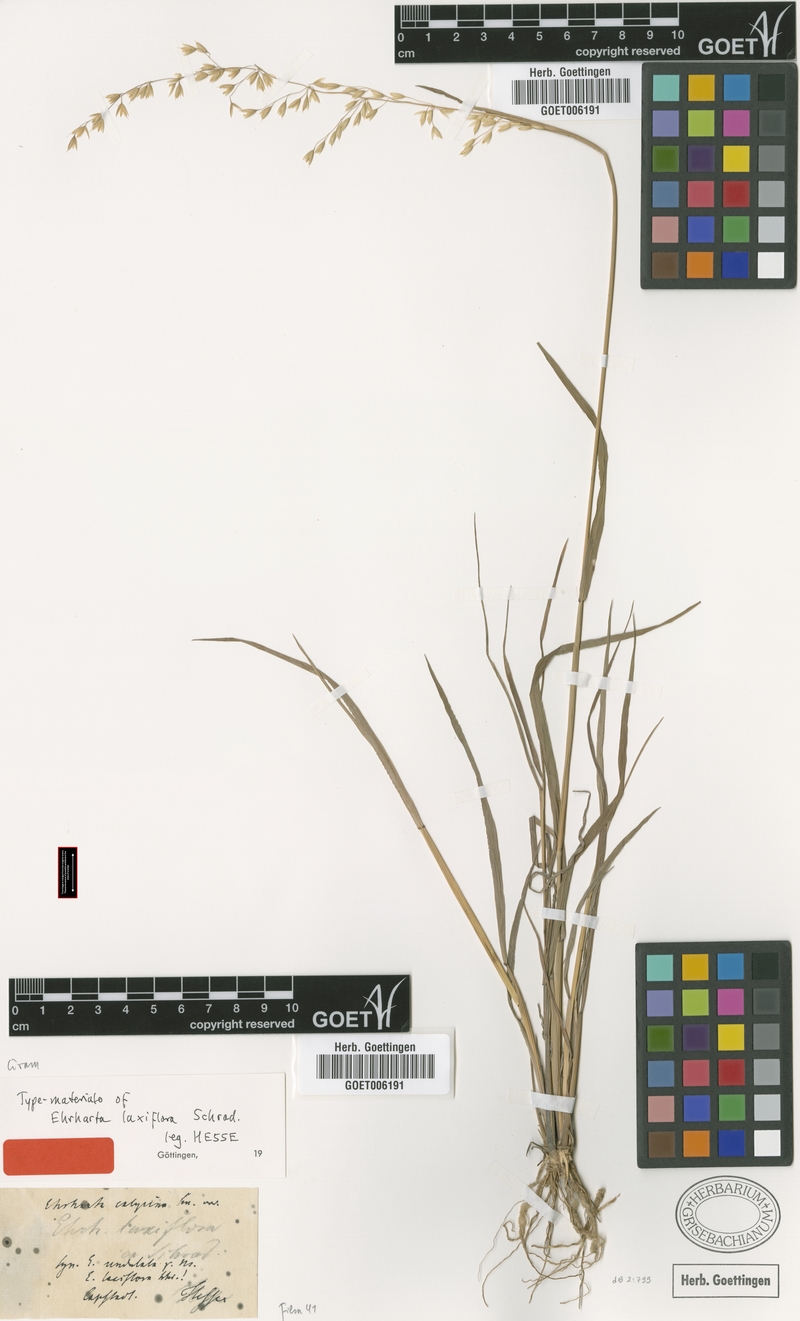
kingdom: Plantae
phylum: Tracheophyta
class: Liliopsida
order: Poales
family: Poaceae
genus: Ehrharta
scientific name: Ehrharta calycina
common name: Perennial veldtgrass
